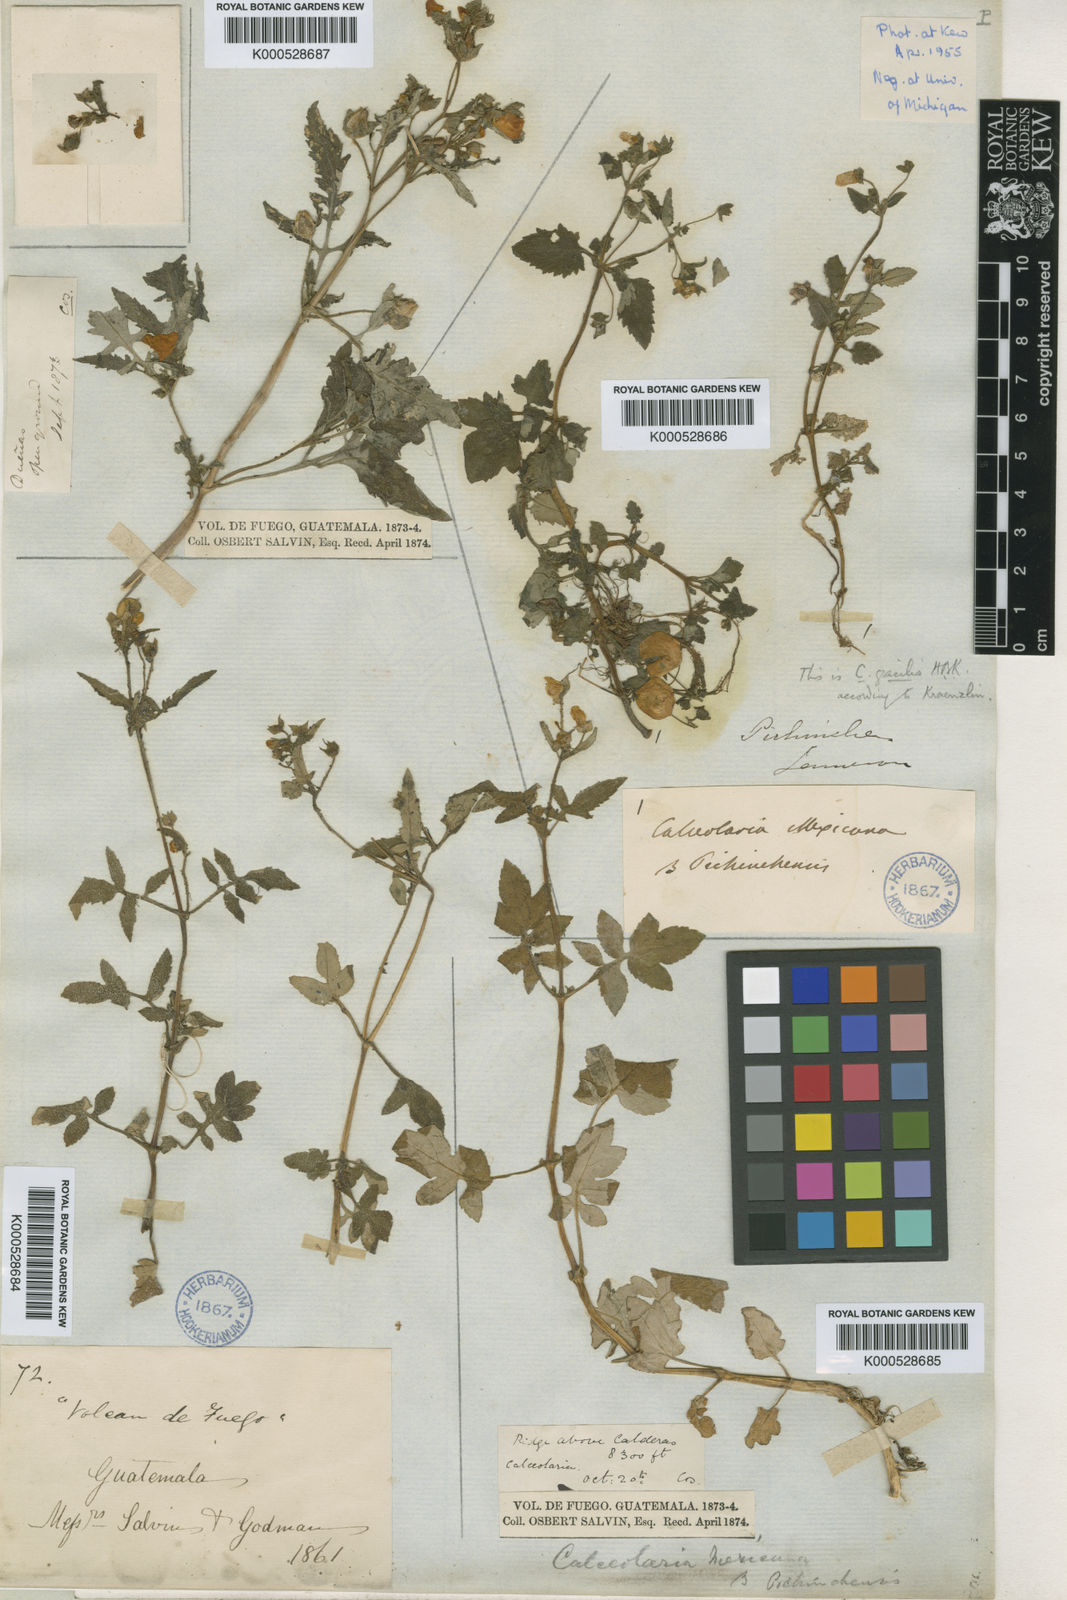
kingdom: Plantae
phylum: Tracheophyta
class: Magnoliopsida
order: Lamiales
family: Calceolariaceae
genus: Calceolaria
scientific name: Calceolaria mexicana
